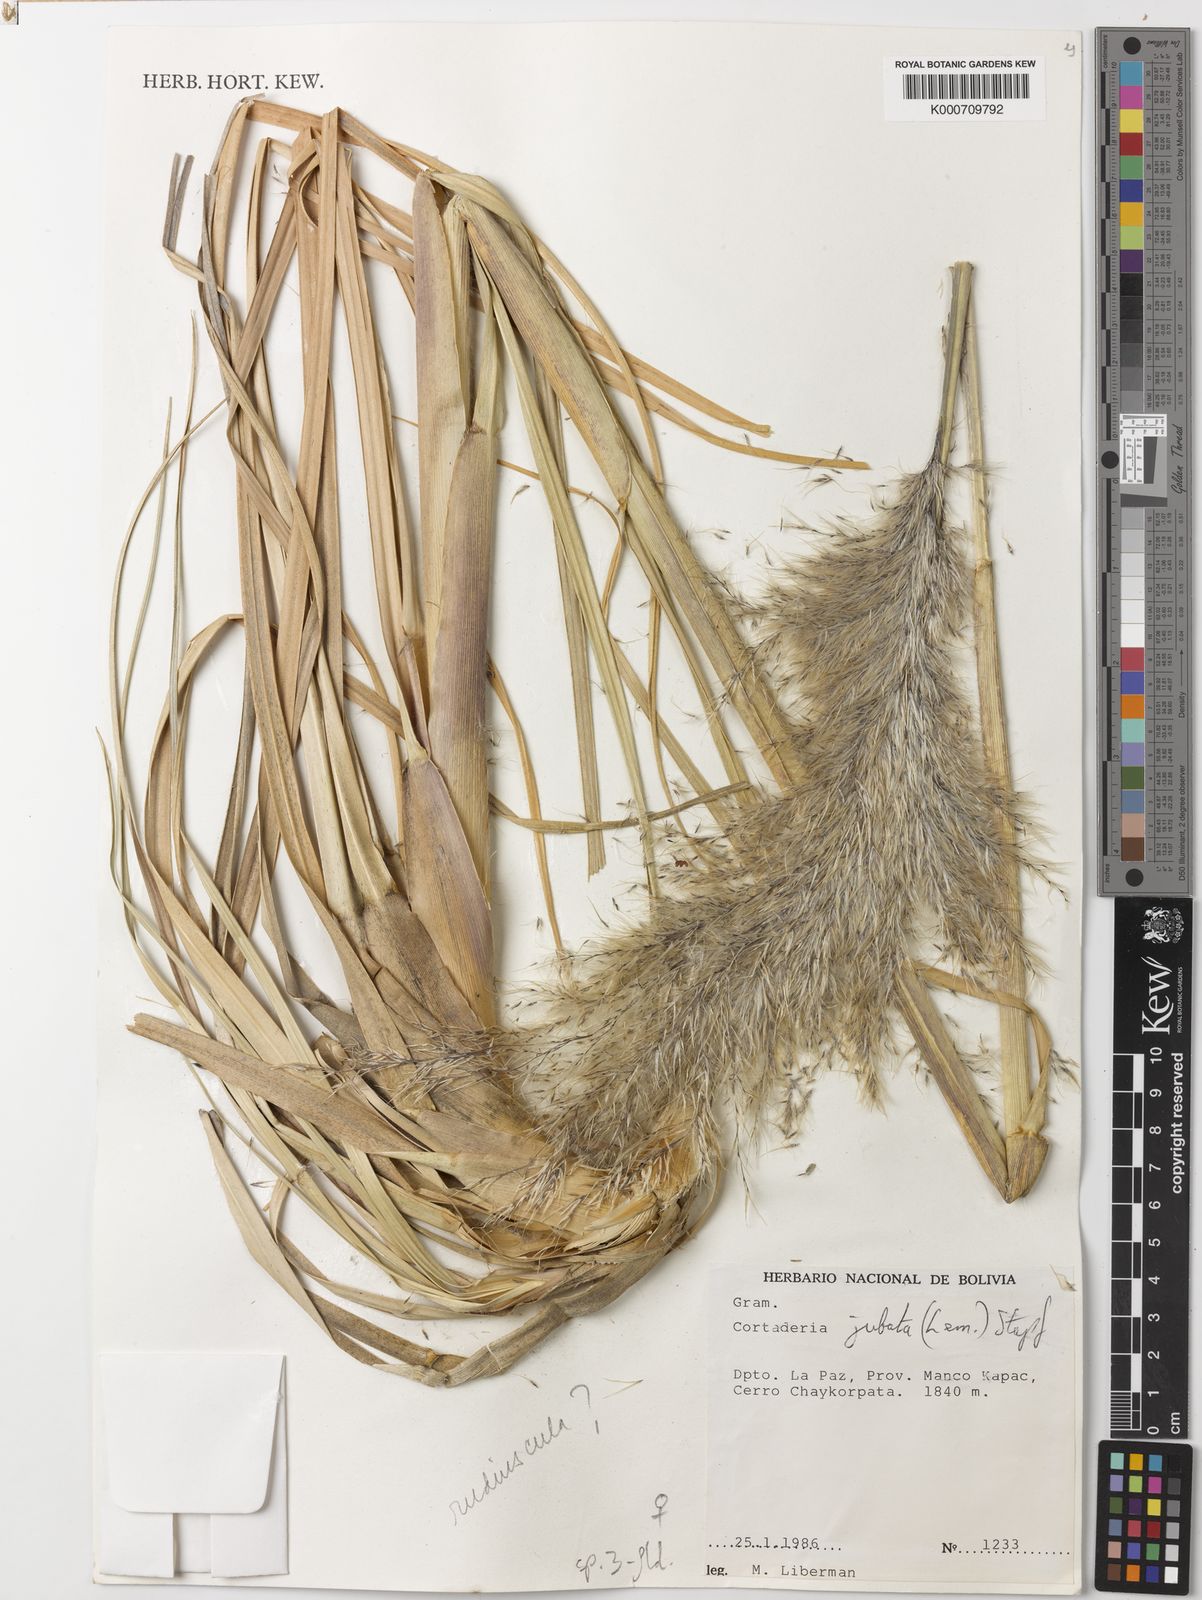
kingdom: Plantae
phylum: Tracheophyta
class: Liliopsida
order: Poales
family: Poaceae
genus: Cortaderia
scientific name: Cortaderia rudiuscula
